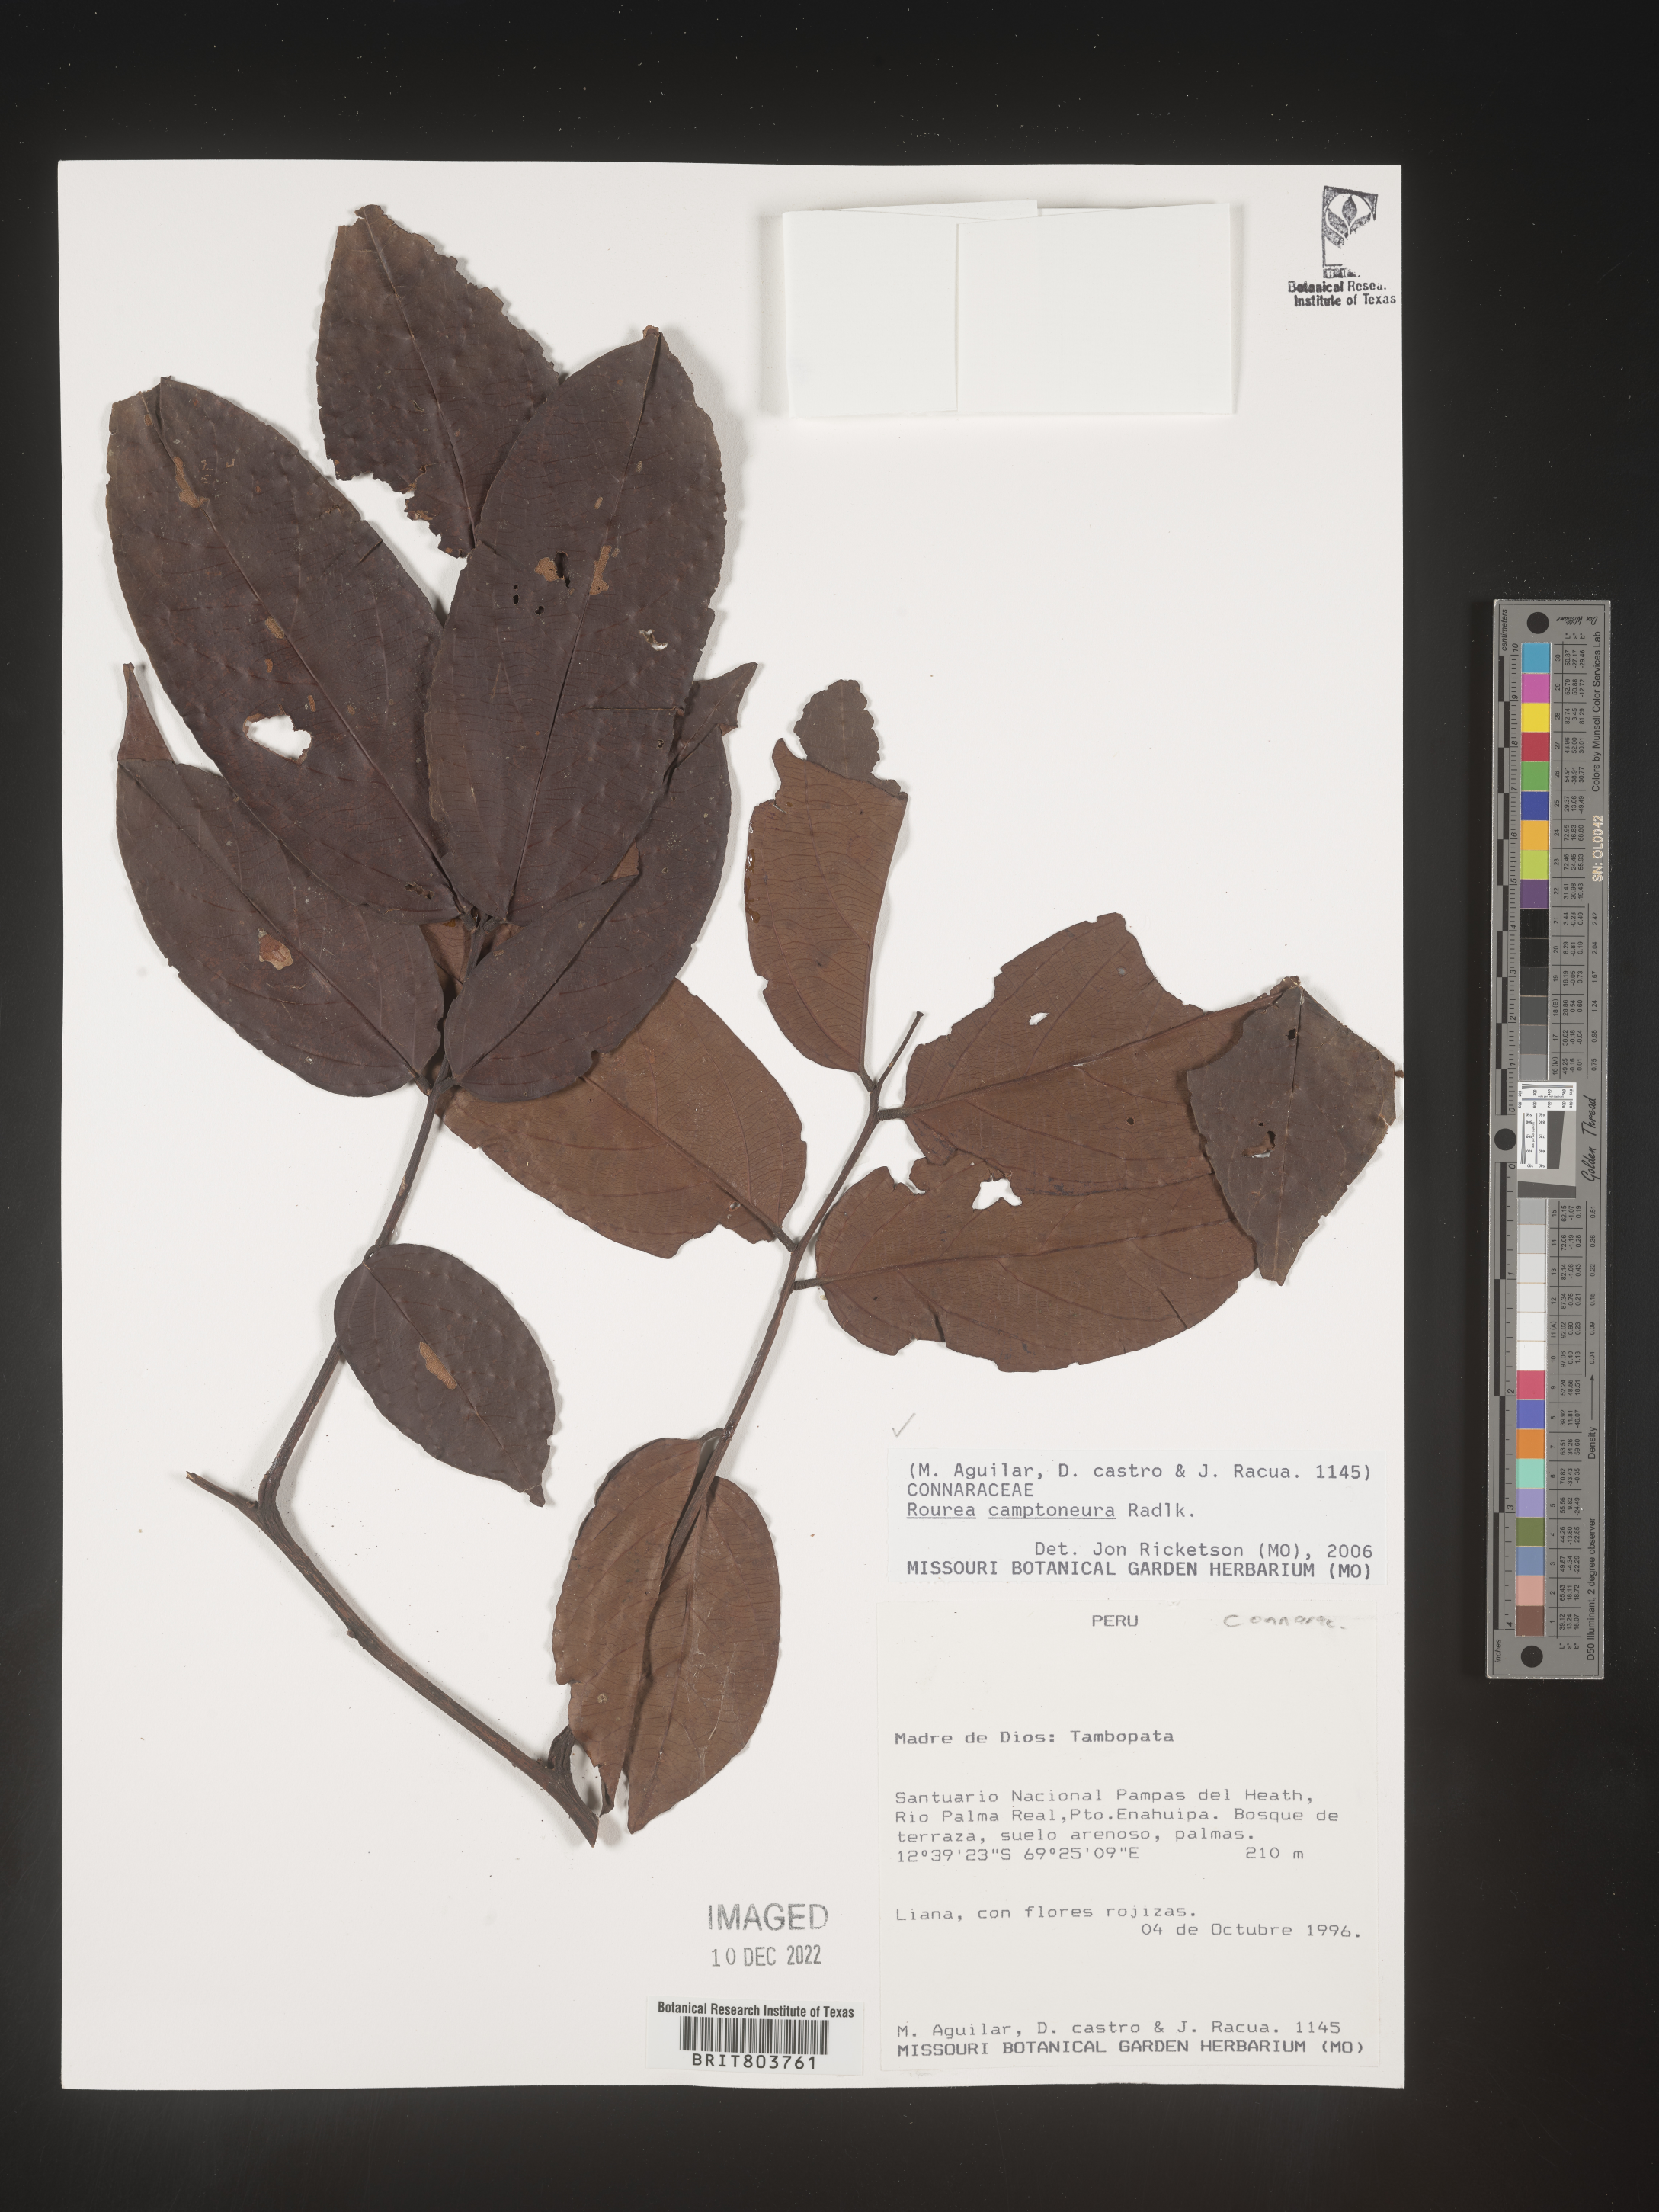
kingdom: Plantae
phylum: Tracheophyta
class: Magnoliopsida
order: Oxalidales
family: Connaraceae
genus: Rourea
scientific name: Rourea
